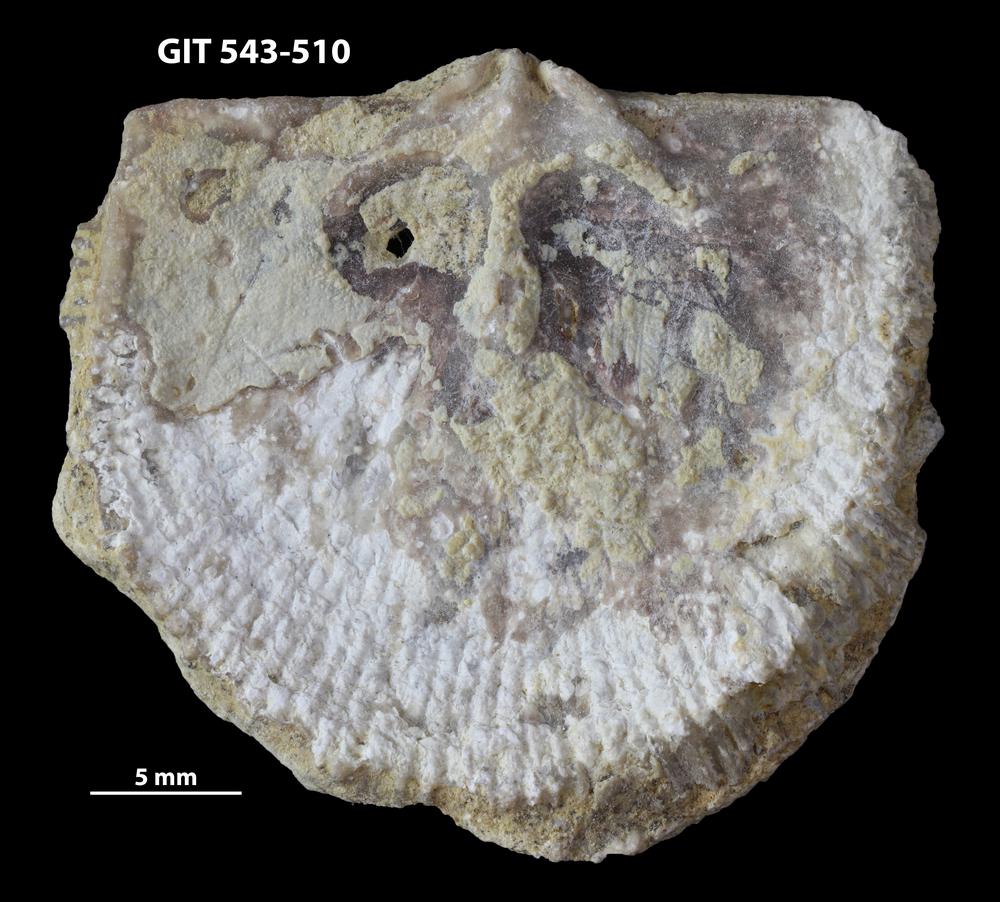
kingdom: Animalia
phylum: Brachiopoda
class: Rhynchonellata
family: Clitambonitidae
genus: Clitambonites
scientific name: Clitambonites Orthisina schmidti
